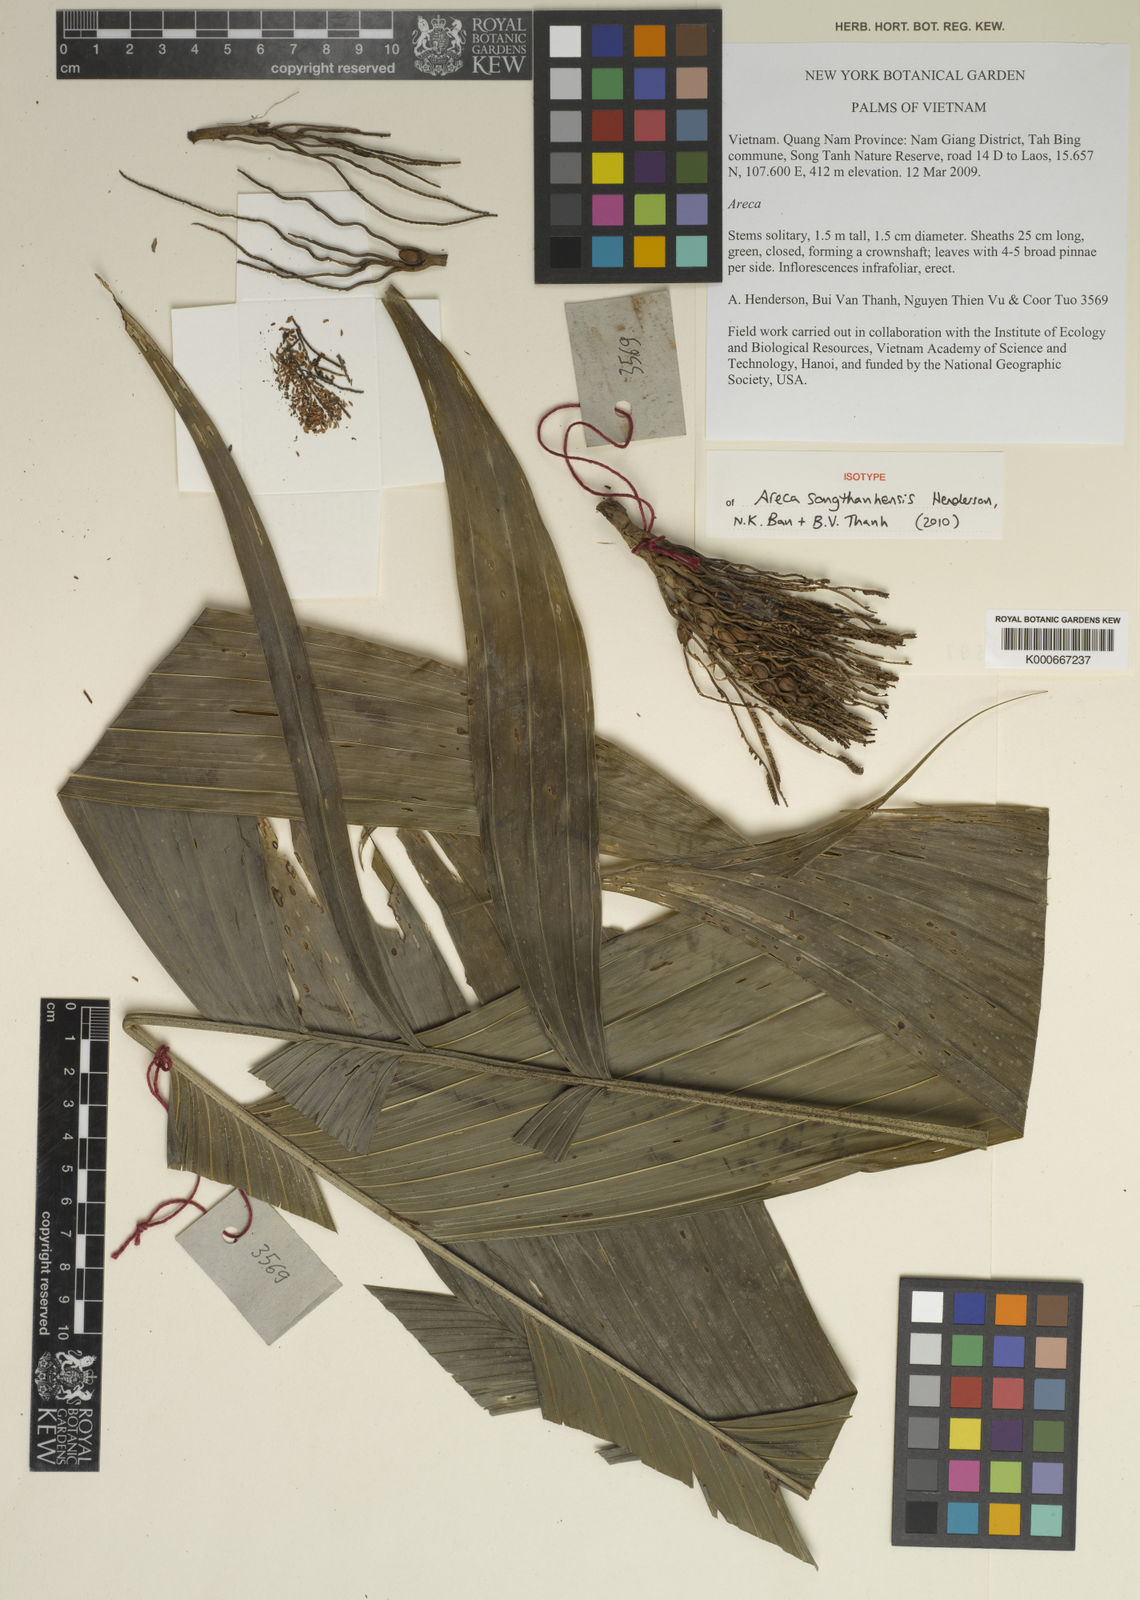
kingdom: Plantae
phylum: Tracheophyta
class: Liliopsida
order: Arecales
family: Arecaceae
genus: Areca
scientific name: Areca songthanhensis
